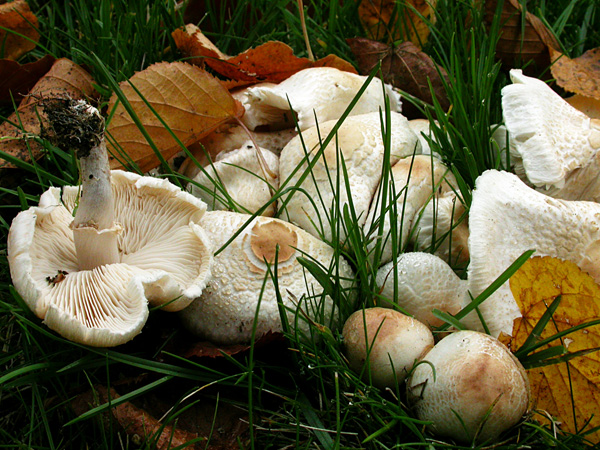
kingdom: Fungi
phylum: Basidiomycota
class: Agaricomycetes
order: Agaricales
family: Agaricaceae
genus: Lepiota
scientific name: Lepiota cristata
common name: stinkende parasolhat
